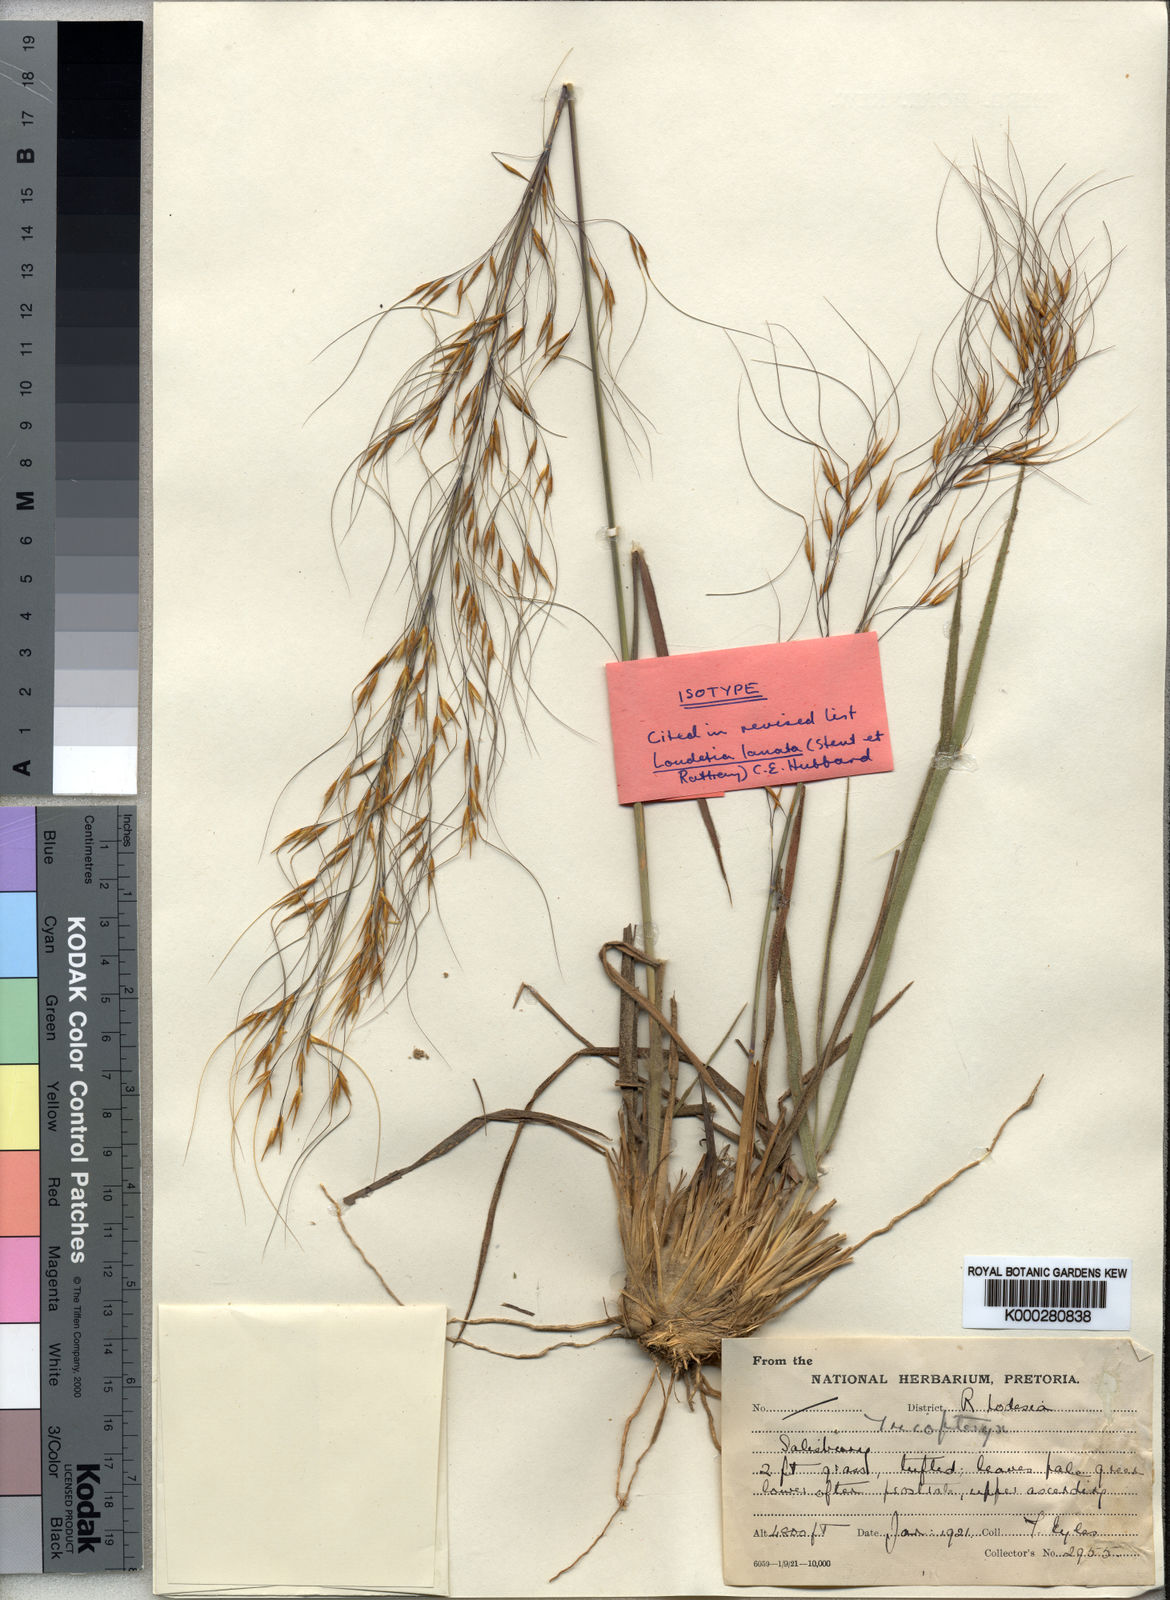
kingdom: Plantae
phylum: Tracheophyta
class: Liliopsida
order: Poales
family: Poaceae
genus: Loudetia
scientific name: Loudetia lanata
